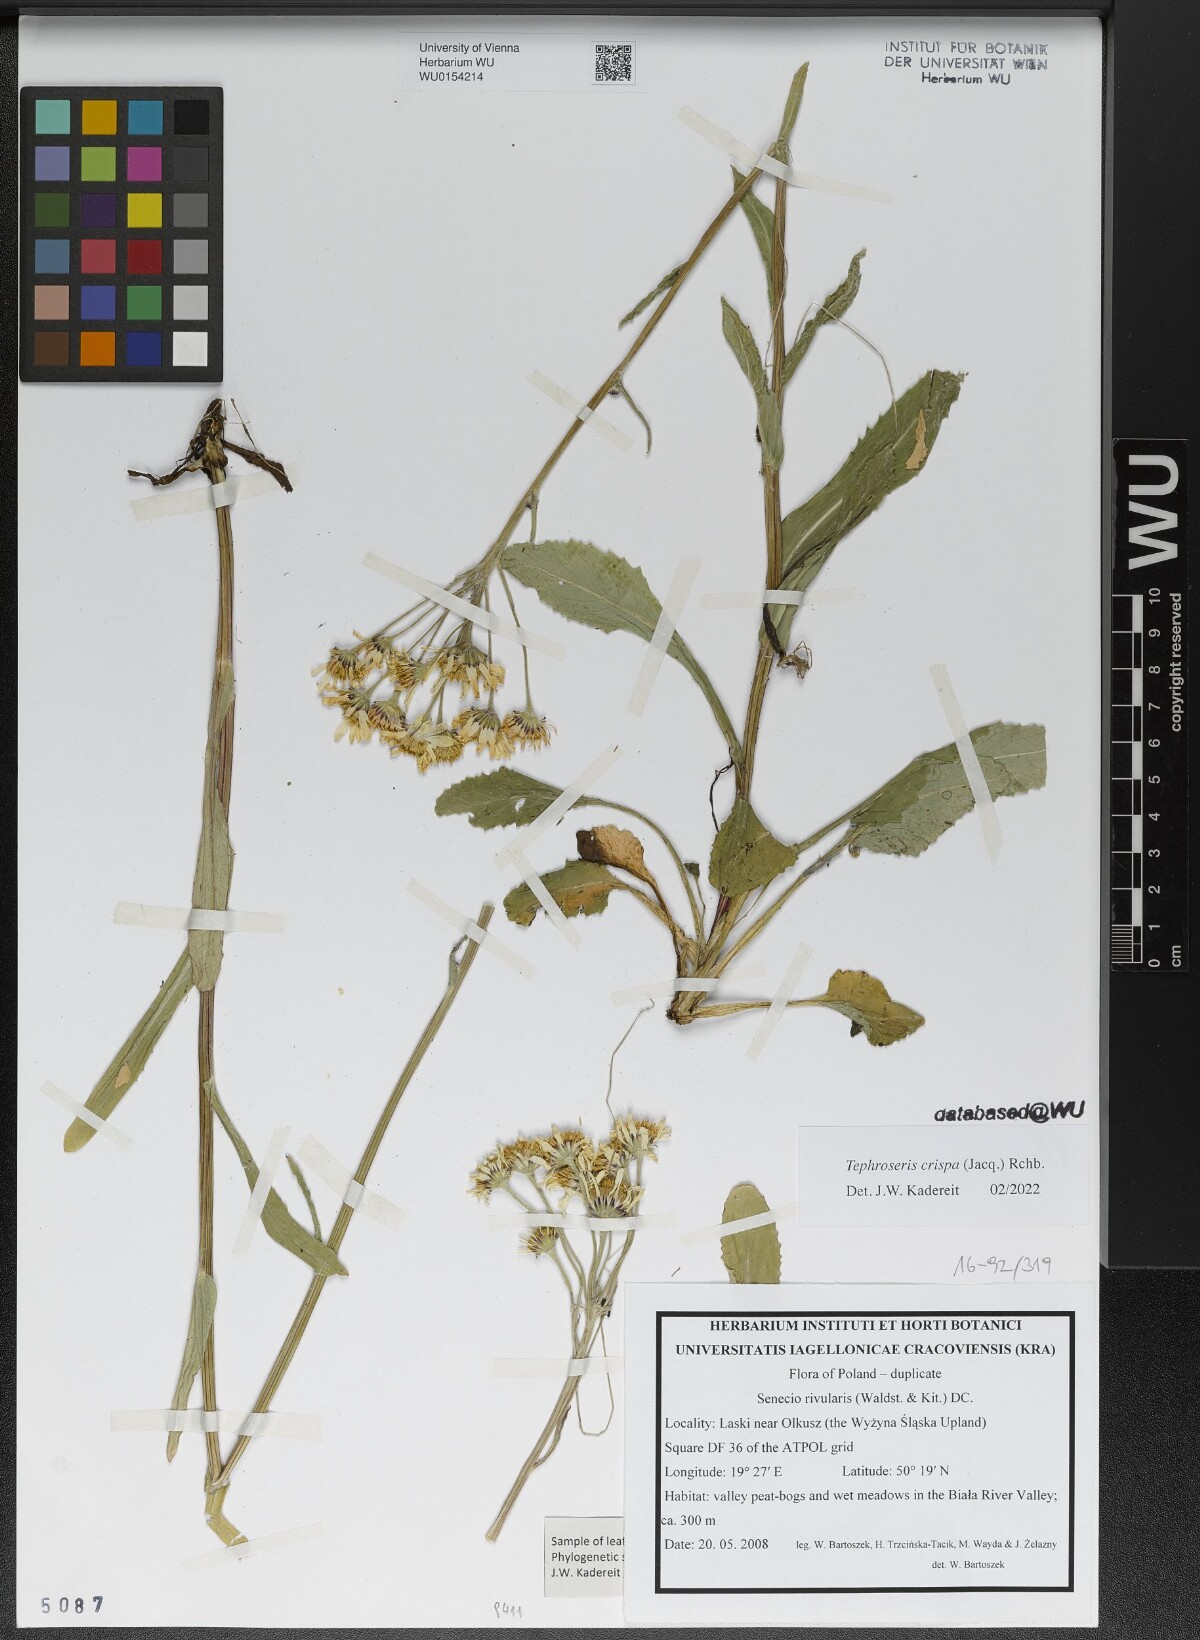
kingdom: Plantae
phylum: Tracheophyta
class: Magnoliopsida
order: Asterales
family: Asteraceae
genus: Tephroseris
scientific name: Tephroseris crispa
